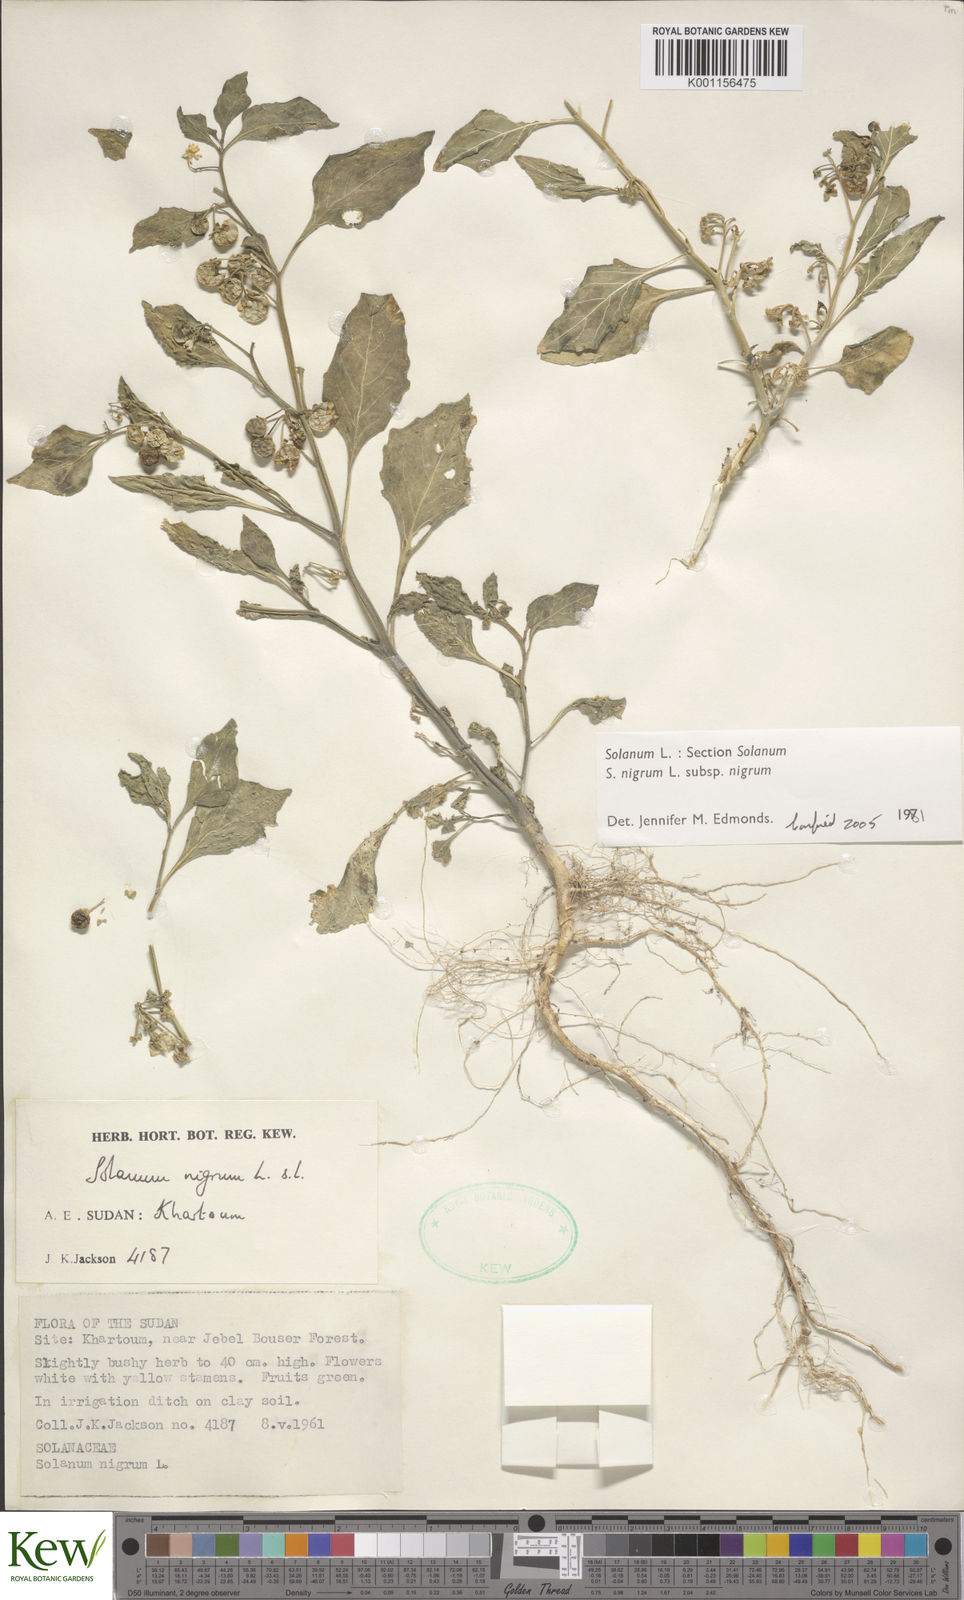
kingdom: Plantae
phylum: Tracheophyta
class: Magnoliopsida
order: Solanales
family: Solanaceae
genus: Solanum
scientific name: Solanum villosum
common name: Red nightshade
